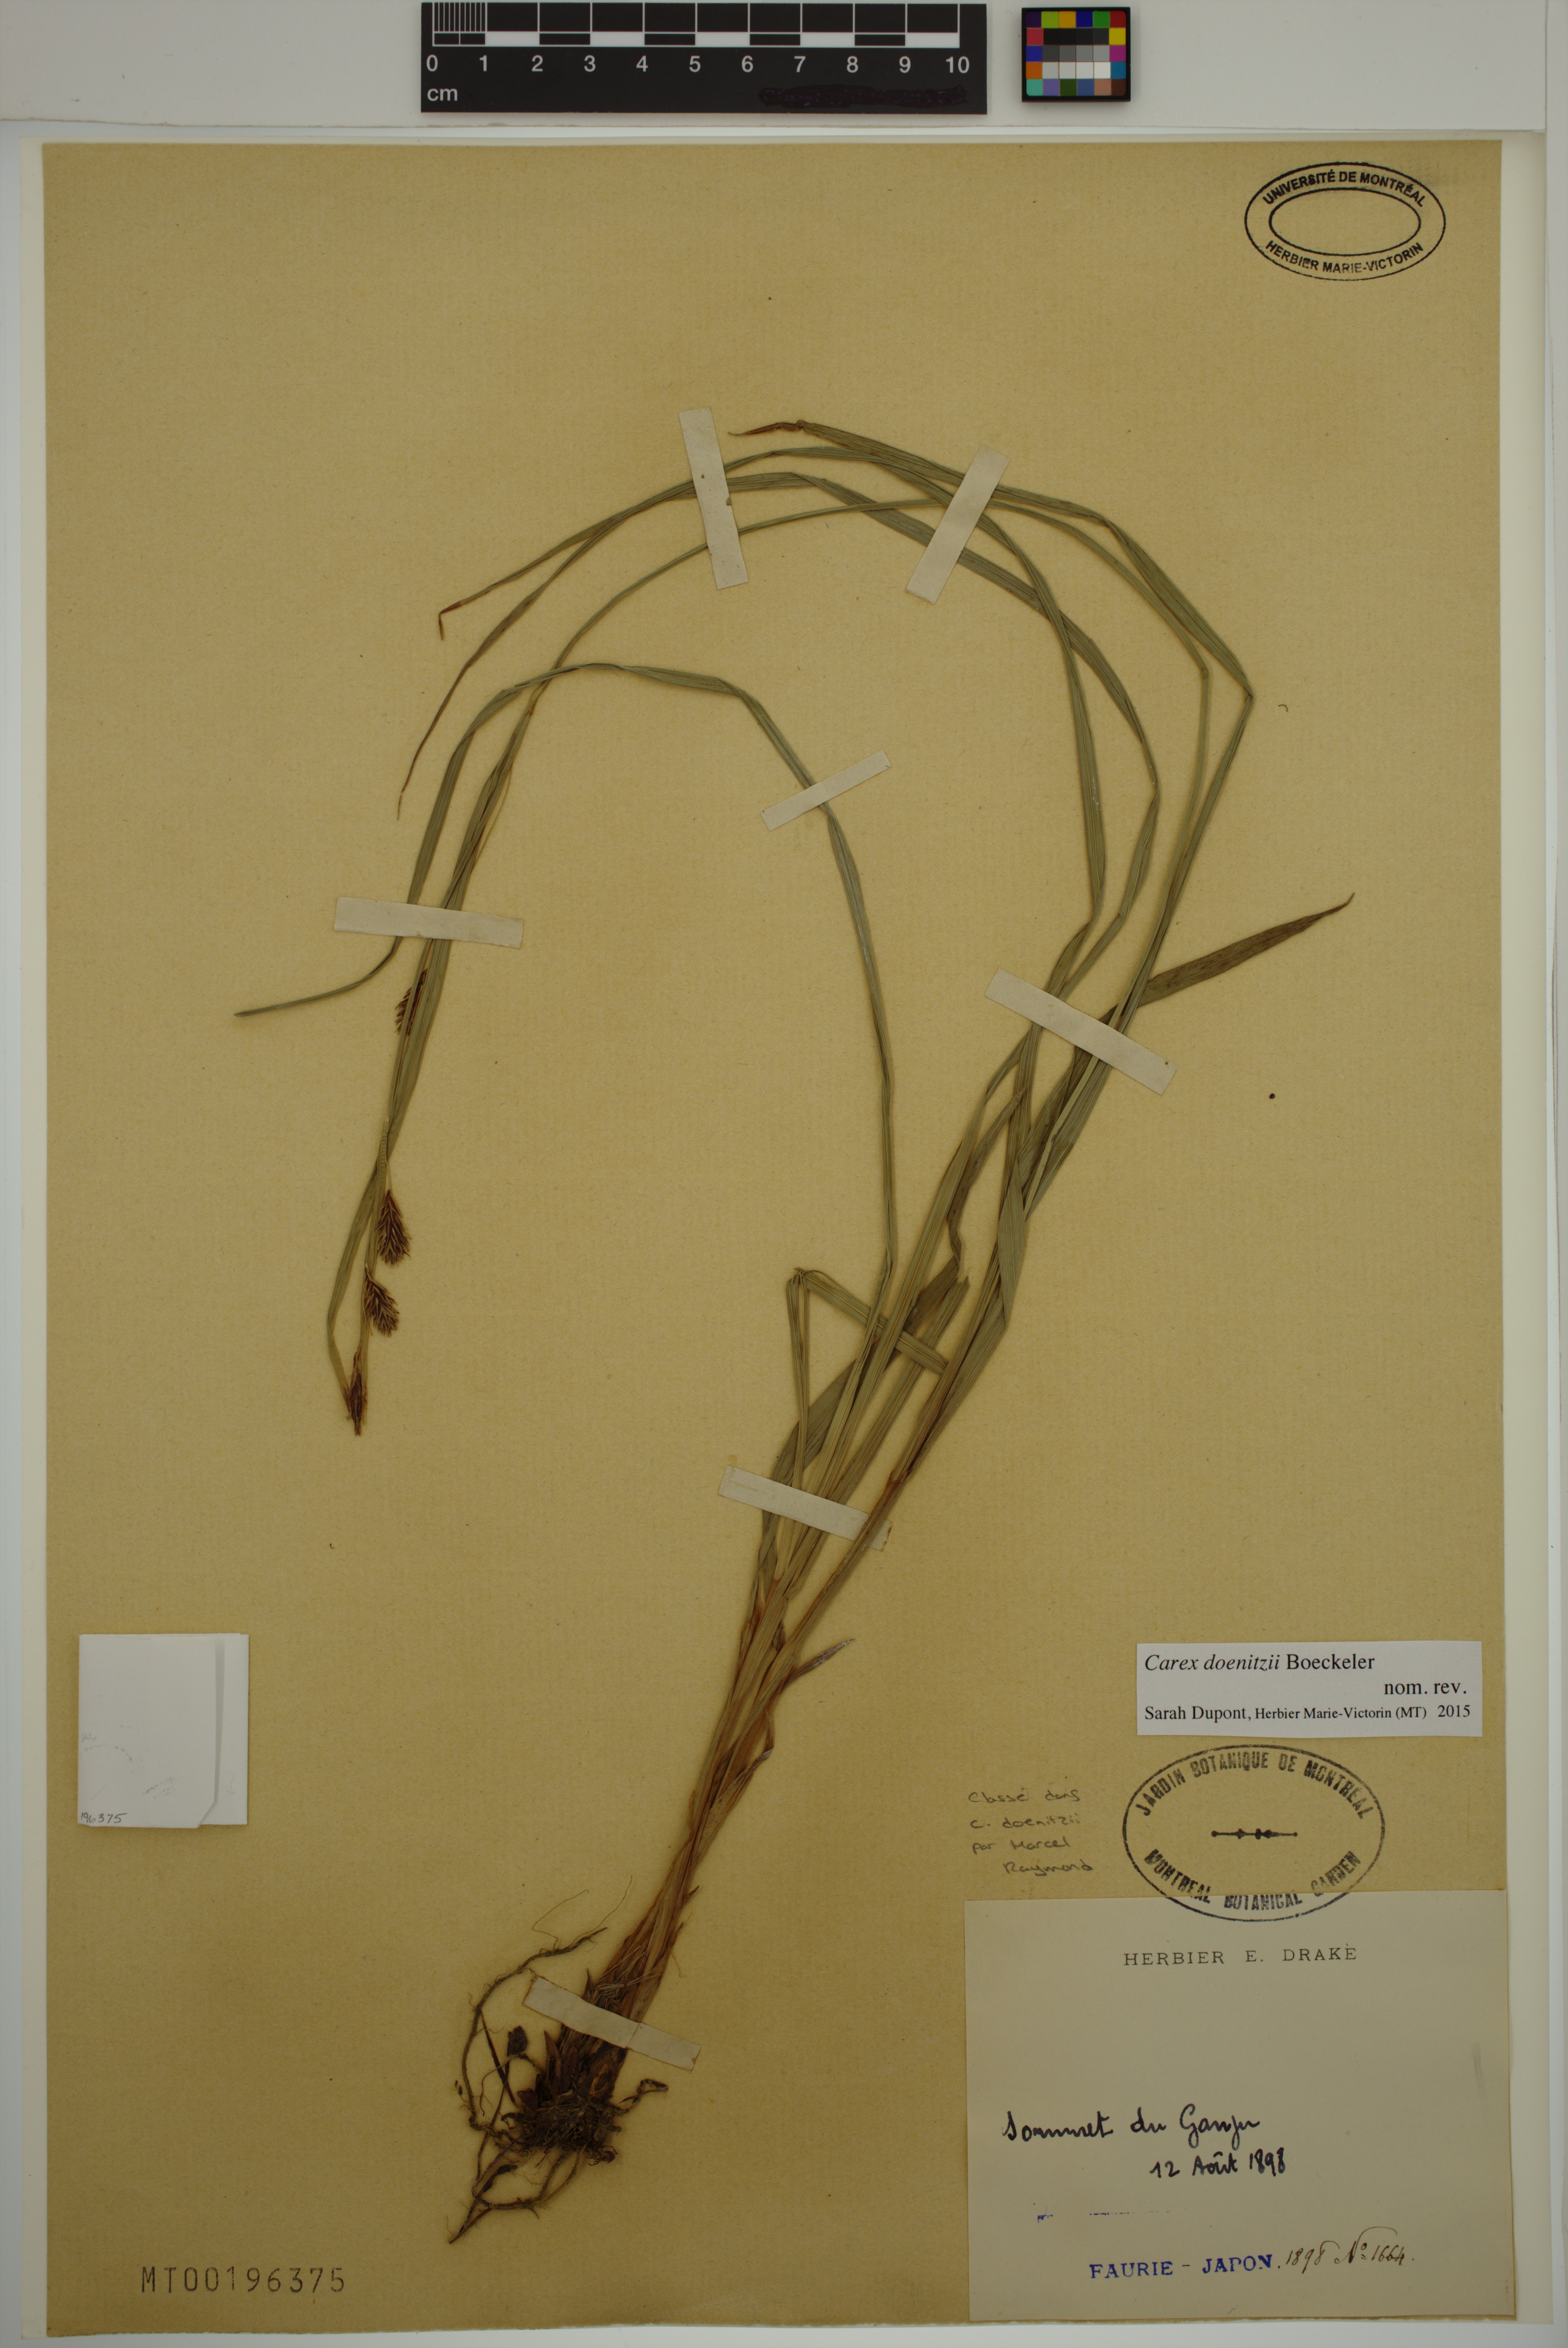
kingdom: Plantae
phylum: Tracheophyta
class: Liliopsida
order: Poales
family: Cyperaceae
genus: Carex
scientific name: Carex doenitzii
